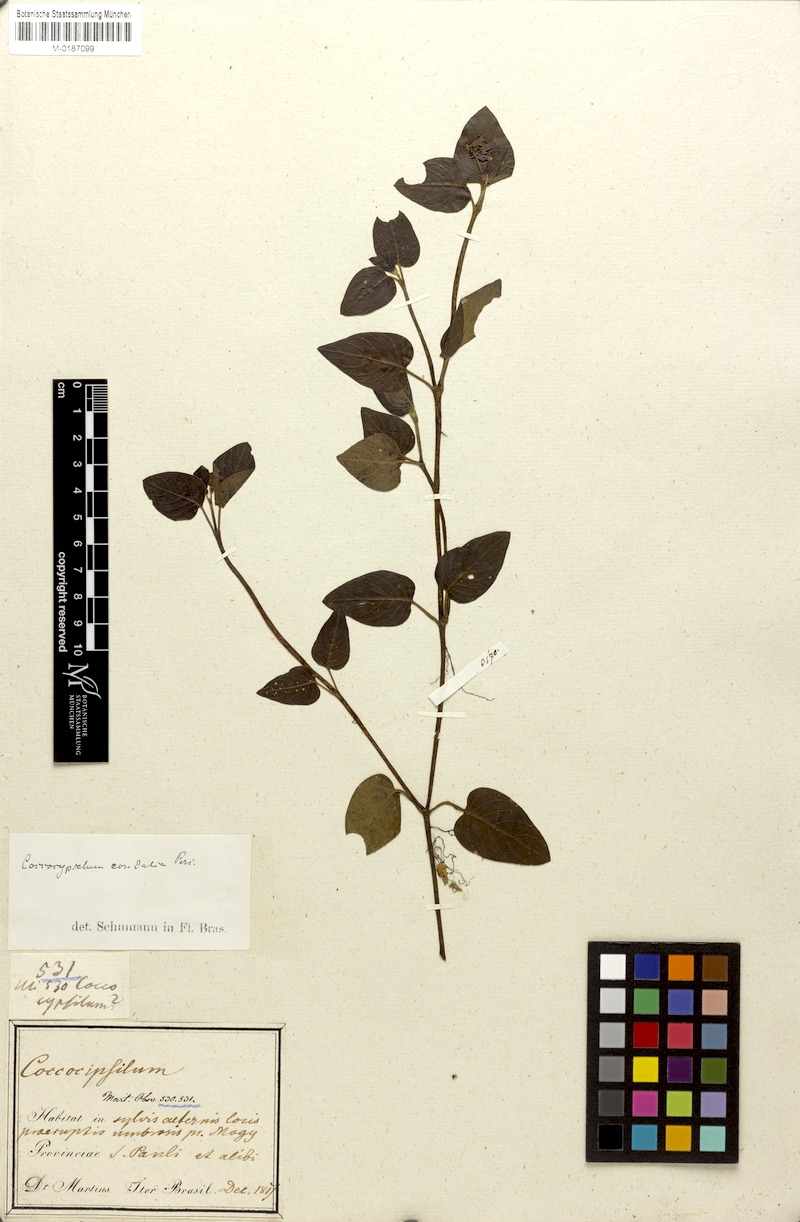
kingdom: Plantae
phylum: Tracheophyta
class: Magnoliopsida
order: Gentianales
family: Rubiaceae
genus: Coccocypselum
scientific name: Coccocypselum condalia
